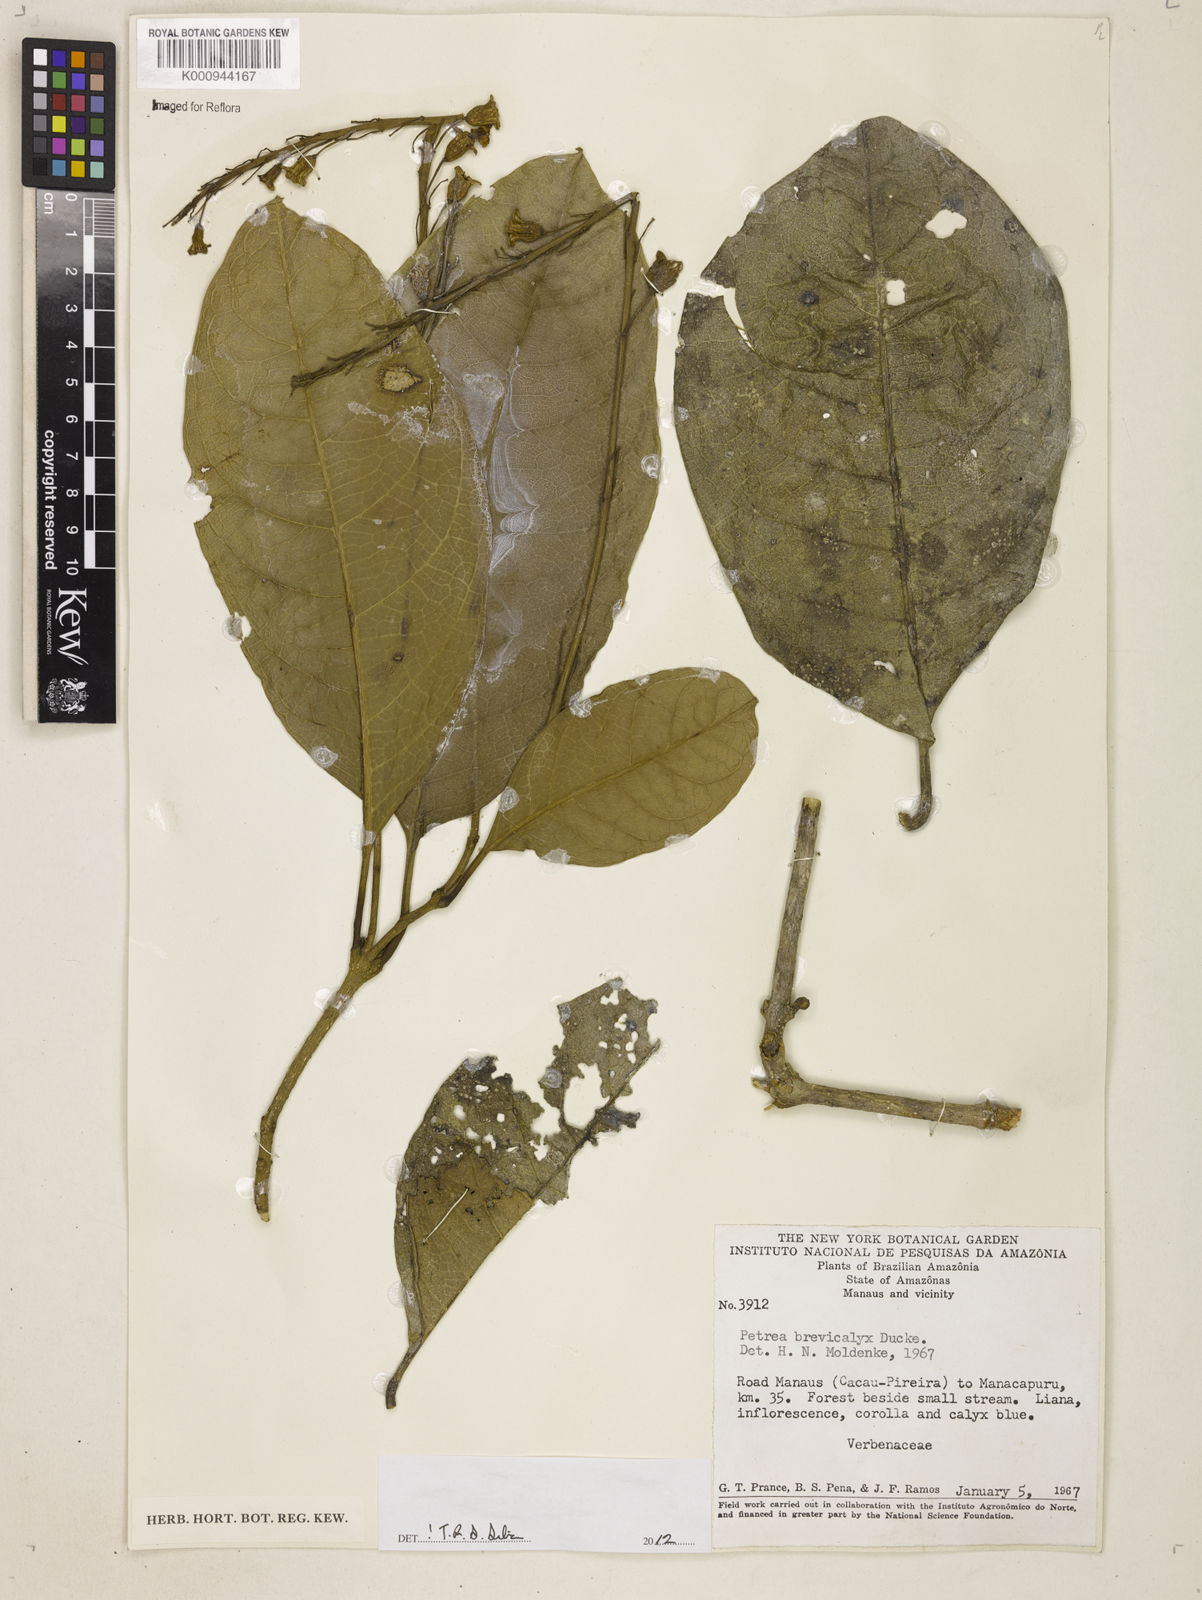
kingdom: Plantae
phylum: Tracheophyta
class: Magnoliopsida
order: Lamiales
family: Verbenaceae
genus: Petrea
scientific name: Petrea brevicalyx
